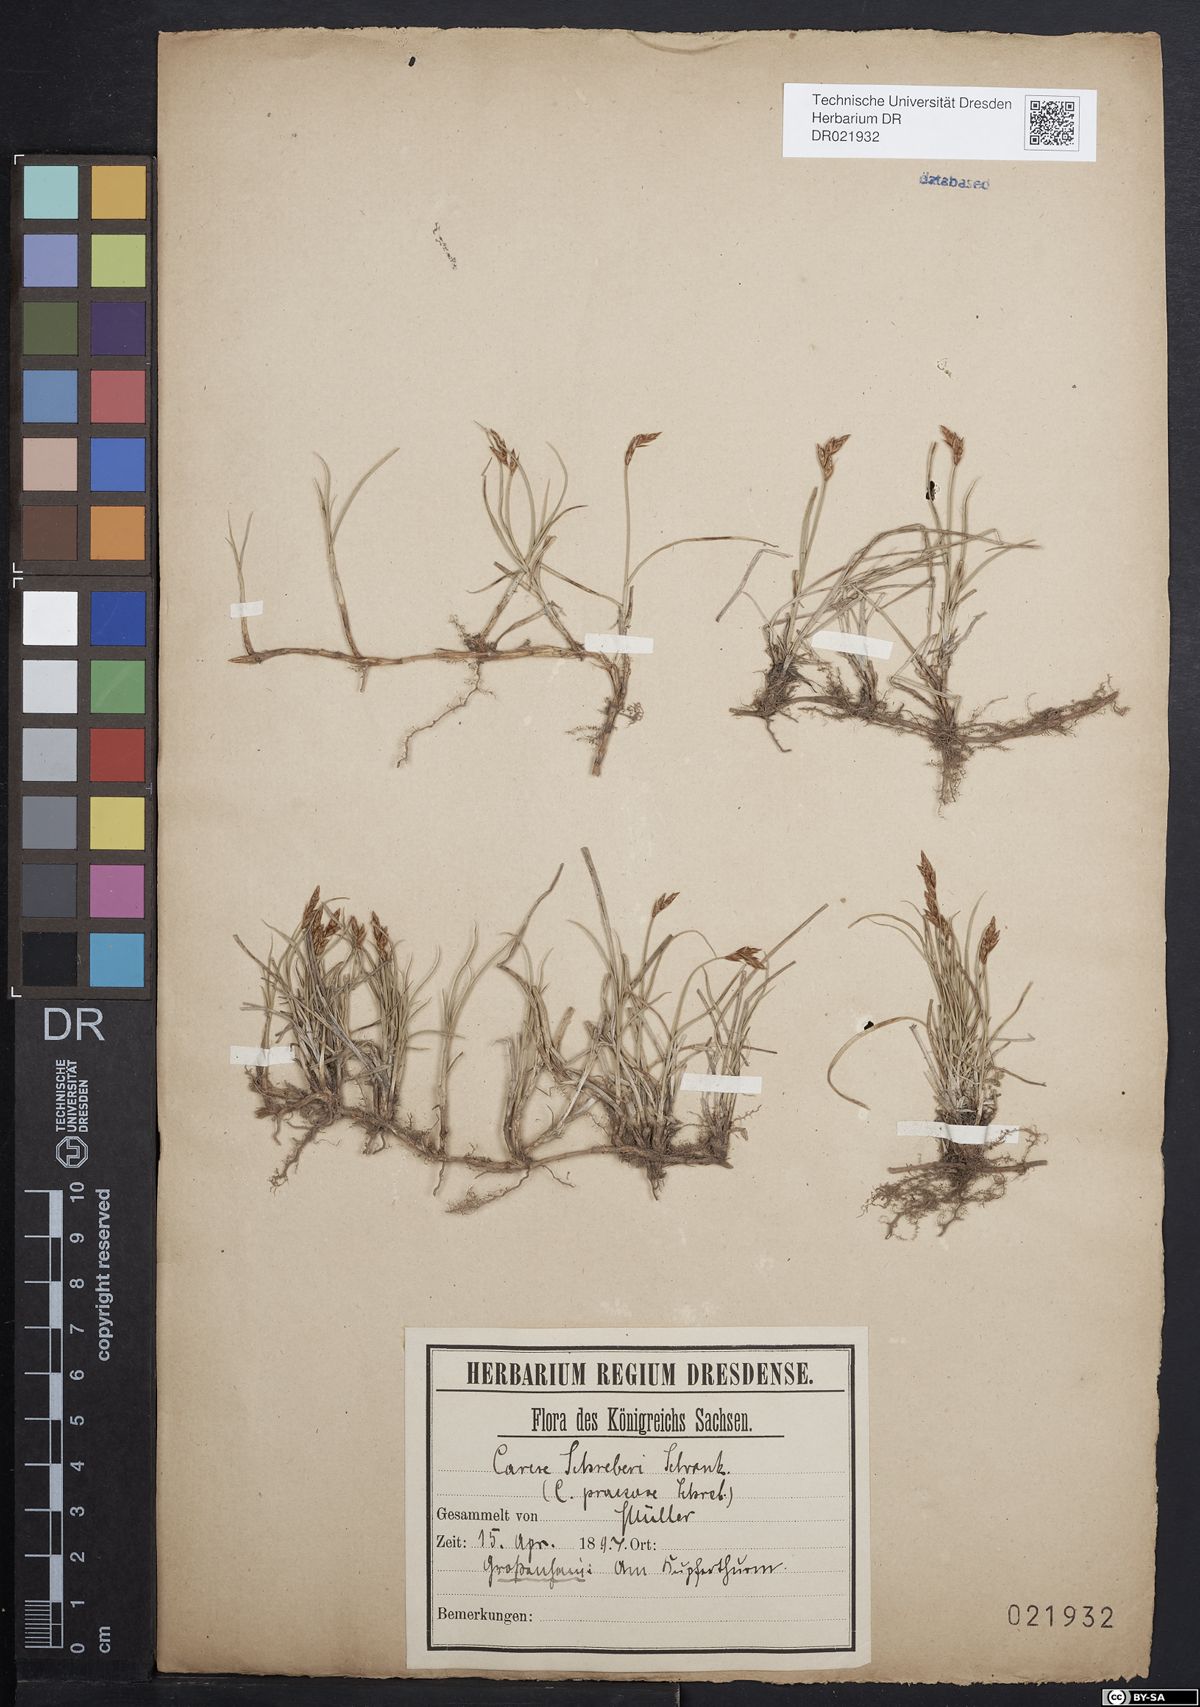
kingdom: Plantae
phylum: Tracheophyta
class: Liliopsida
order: Poales
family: Cyperaceae
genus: Carex
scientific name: Carex praecox
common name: Early sedge
